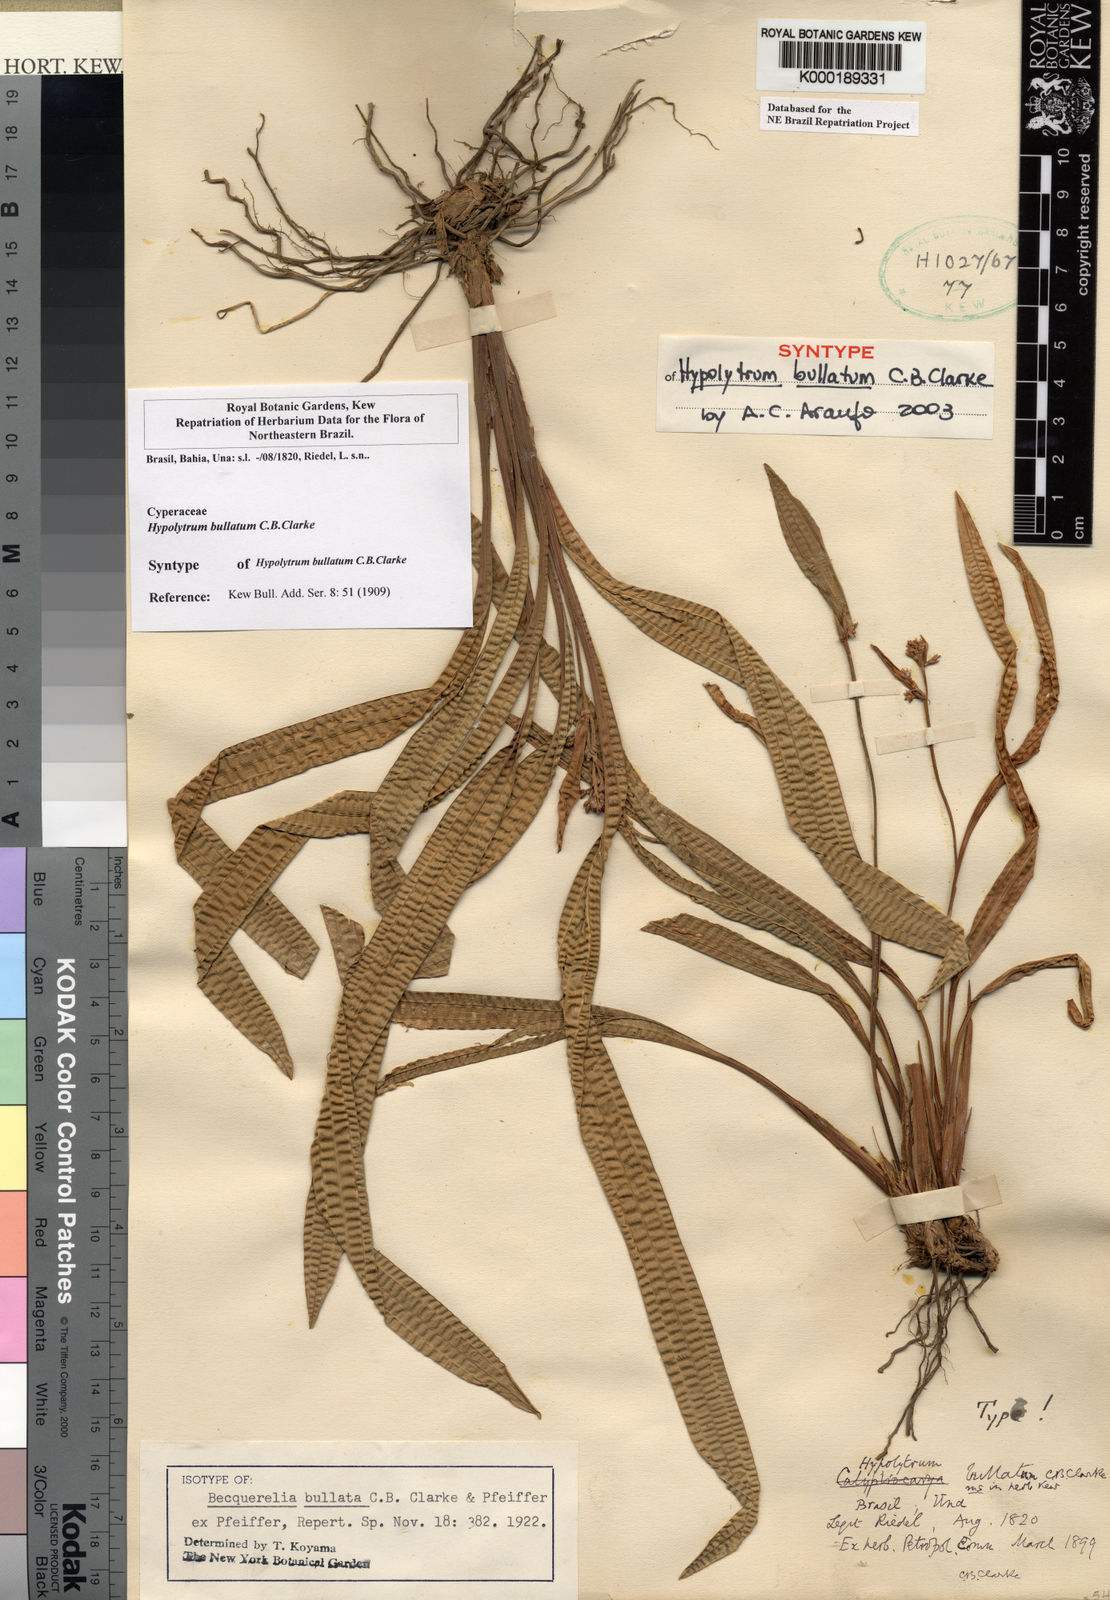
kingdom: Plantae
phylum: Tracheophyta
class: Liliopsida
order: Poales
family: Cyperaceae
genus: Hypolytrum
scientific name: Hypolytrum bullatum
